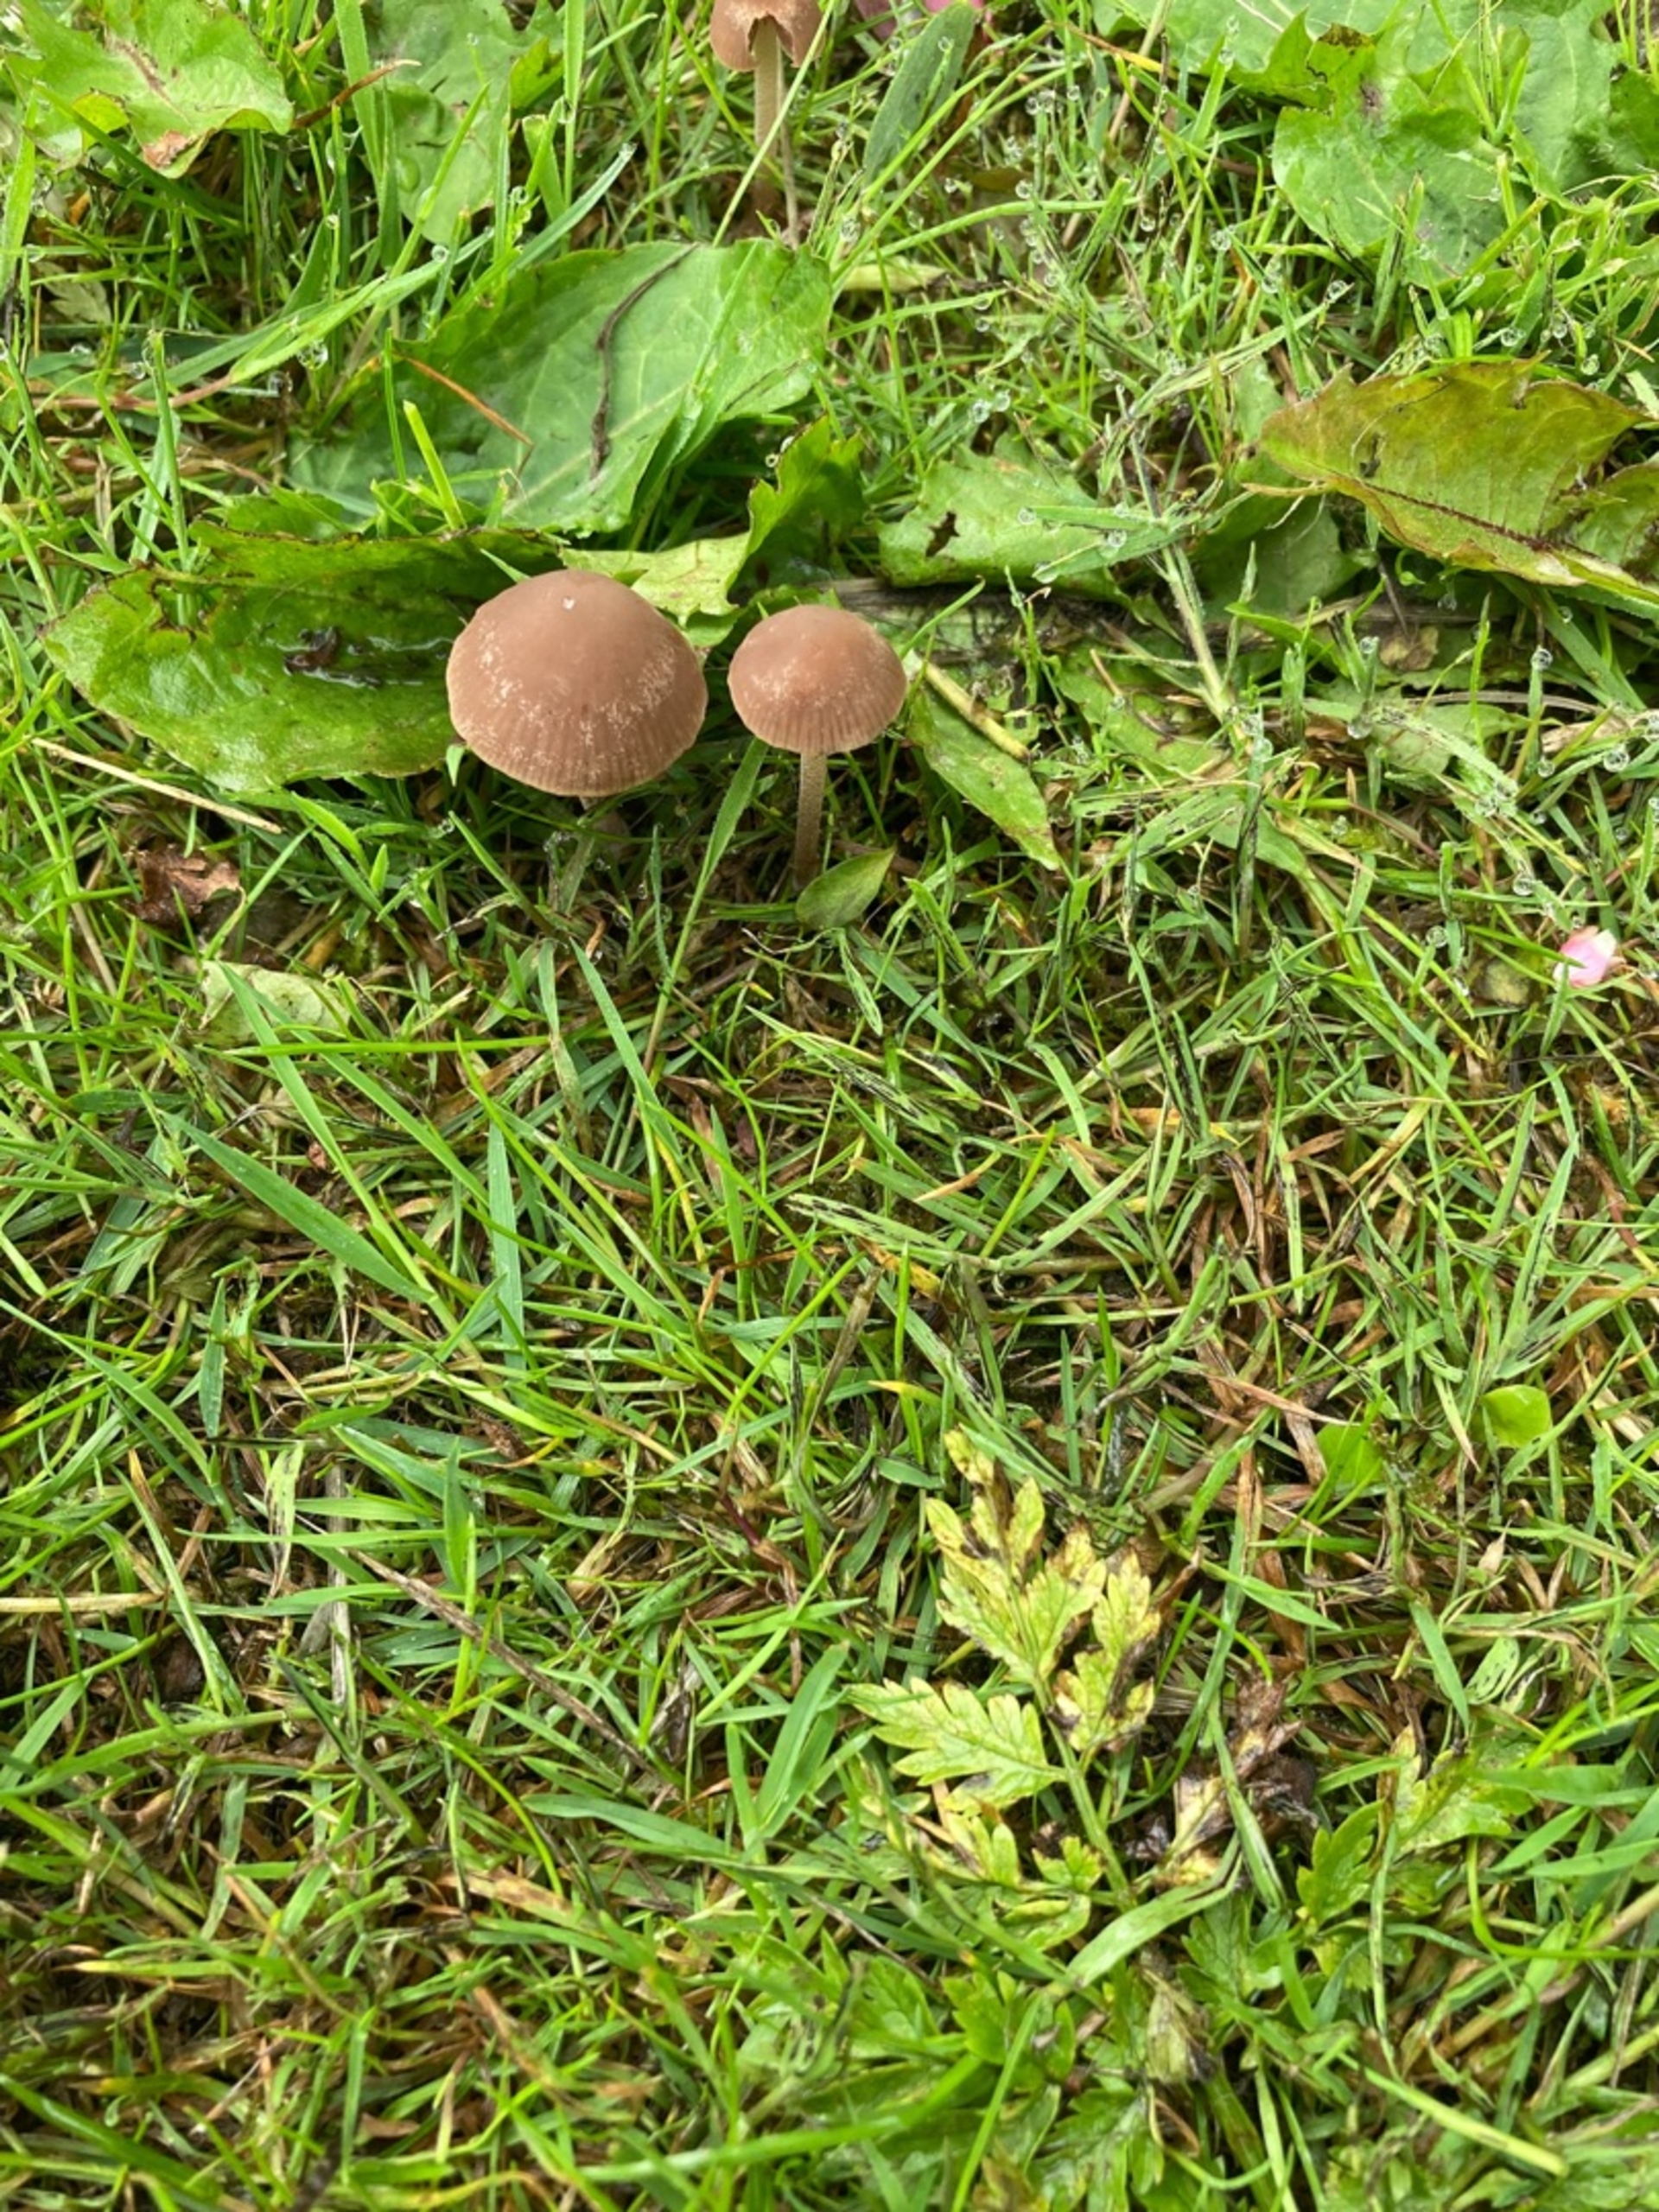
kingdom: Fungi
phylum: Basidiomycota
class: Agaricomycetes
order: Agaricales
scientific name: Agaricales
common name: Champignonordenen
